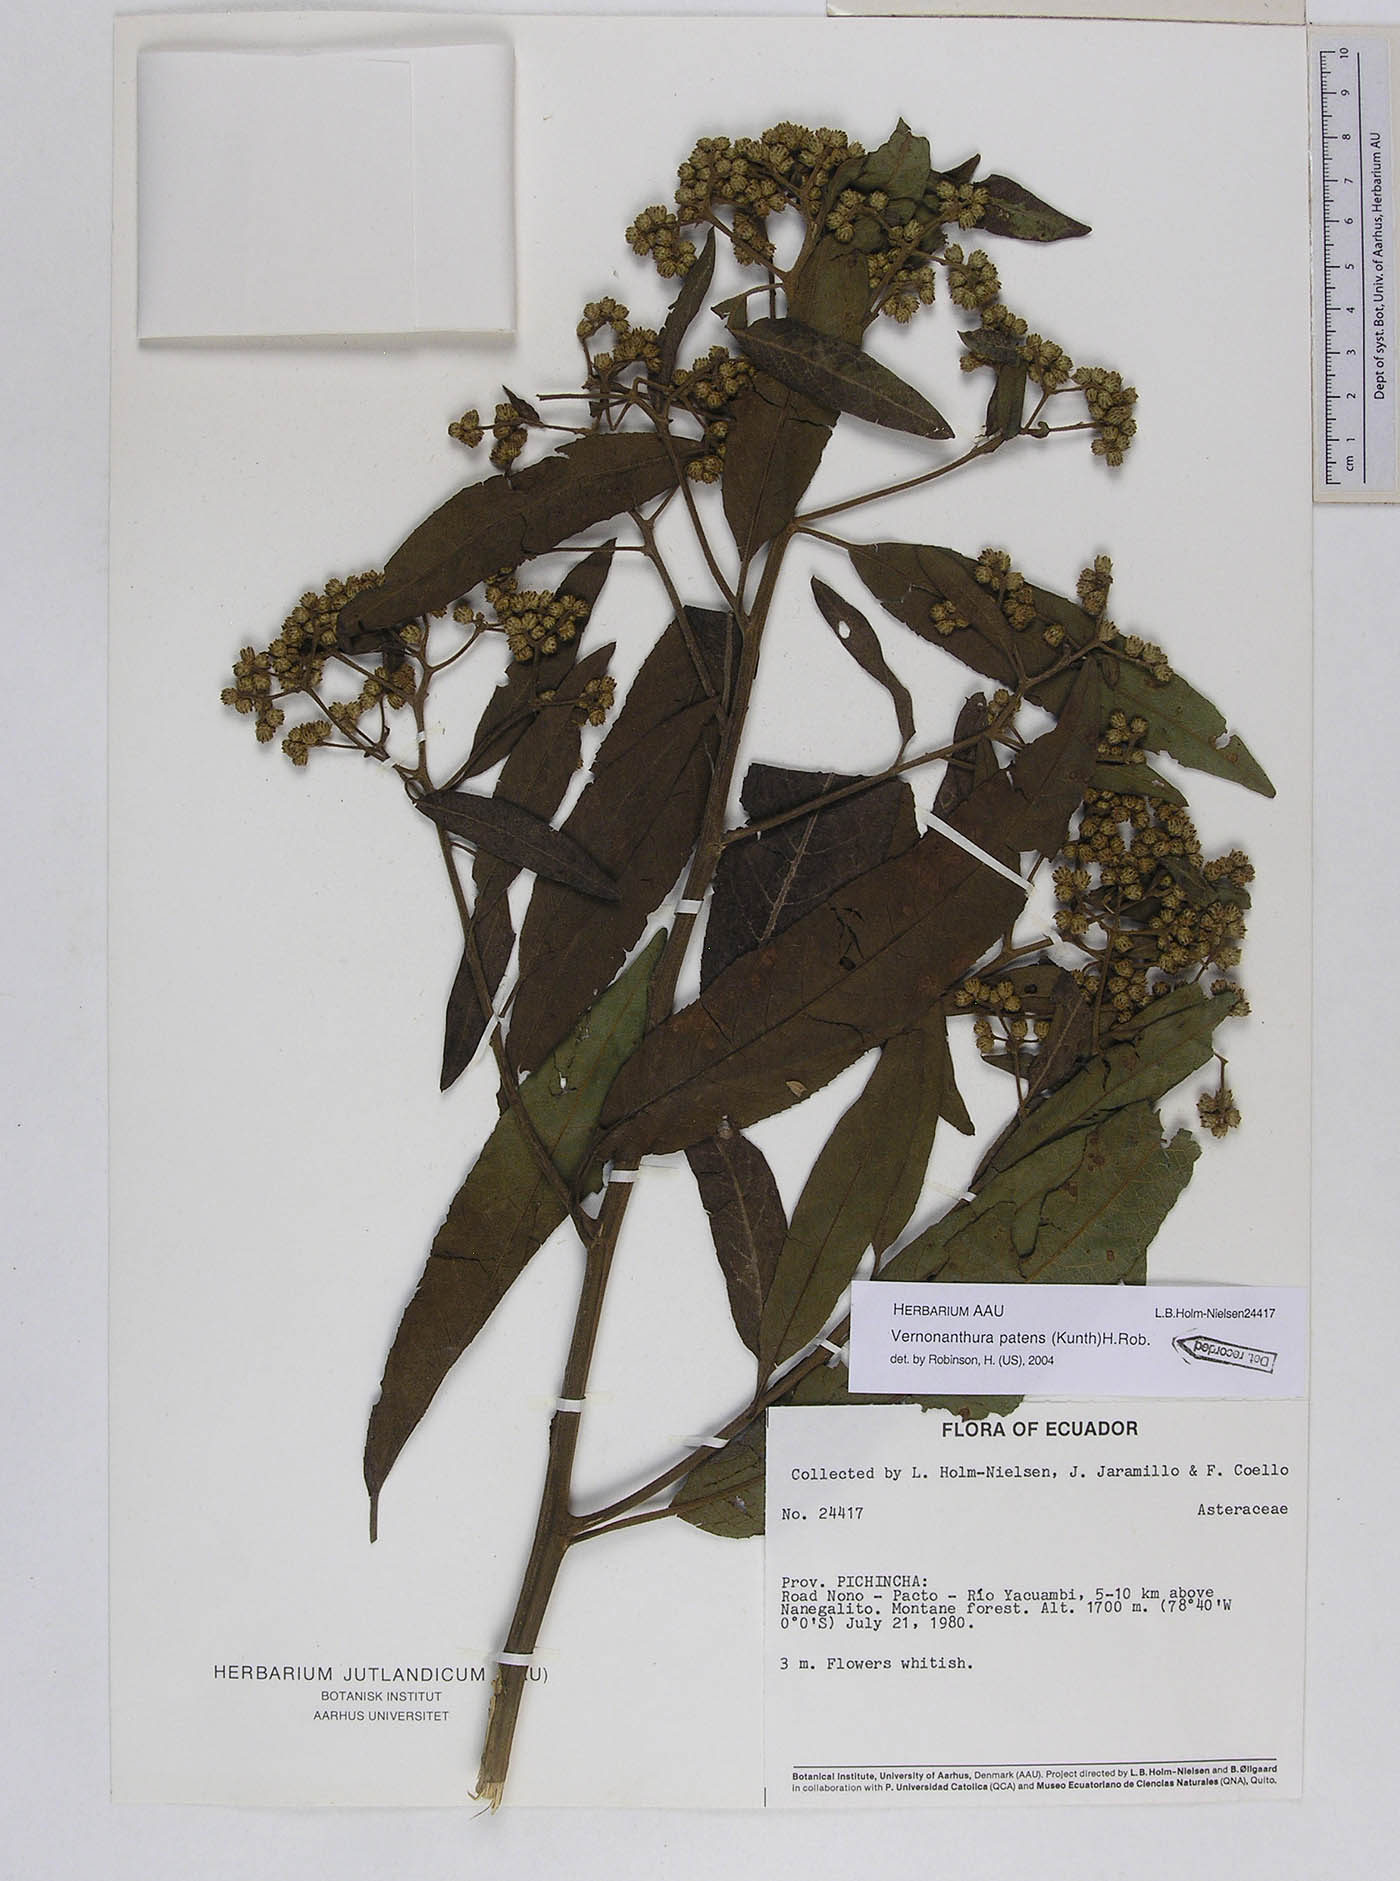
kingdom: Plantae
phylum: Tracheophyta
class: Magnoliopsida
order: Asterales
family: Asteraceae
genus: Vernonanthura
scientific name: Vernonanthura patens
